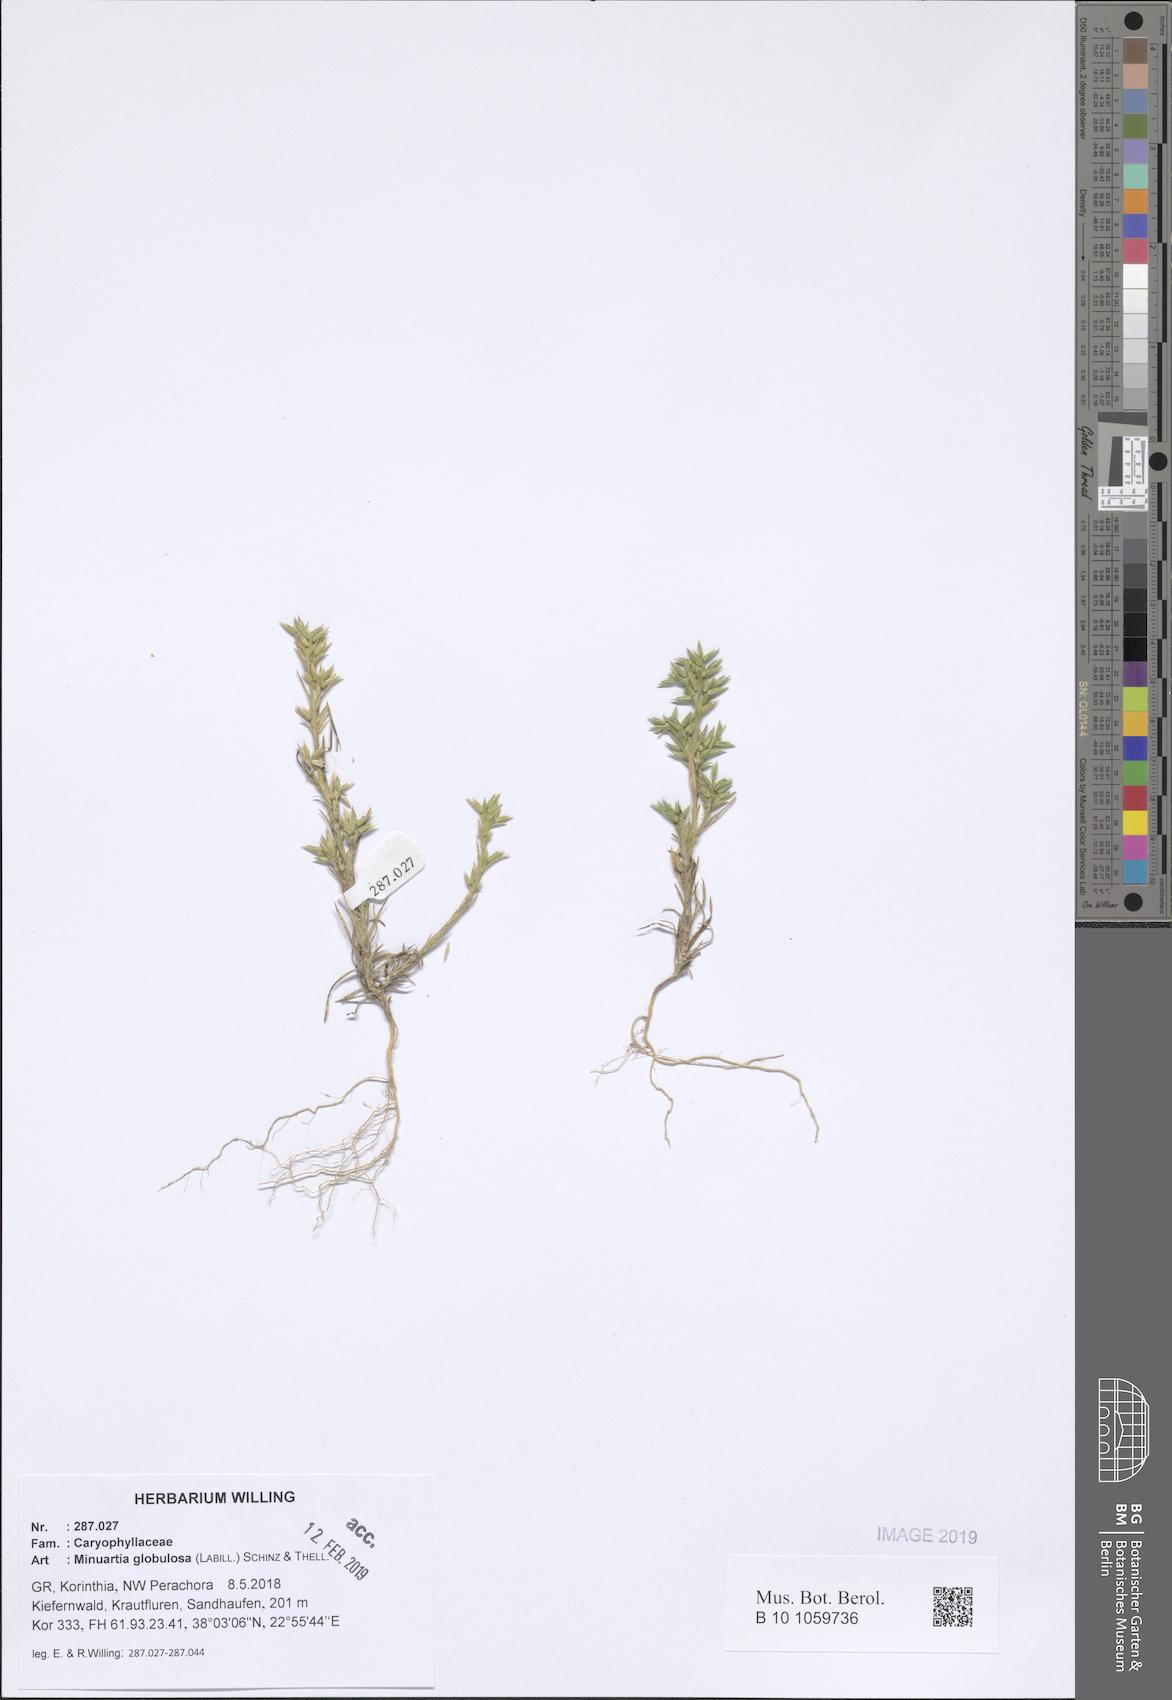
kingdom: Plantae
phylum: Tracheophyta
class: Magnoliopsida
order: Caryophyllales
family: Caryophyllaceae
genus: Minuartia
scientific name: Minuartia globulosa
